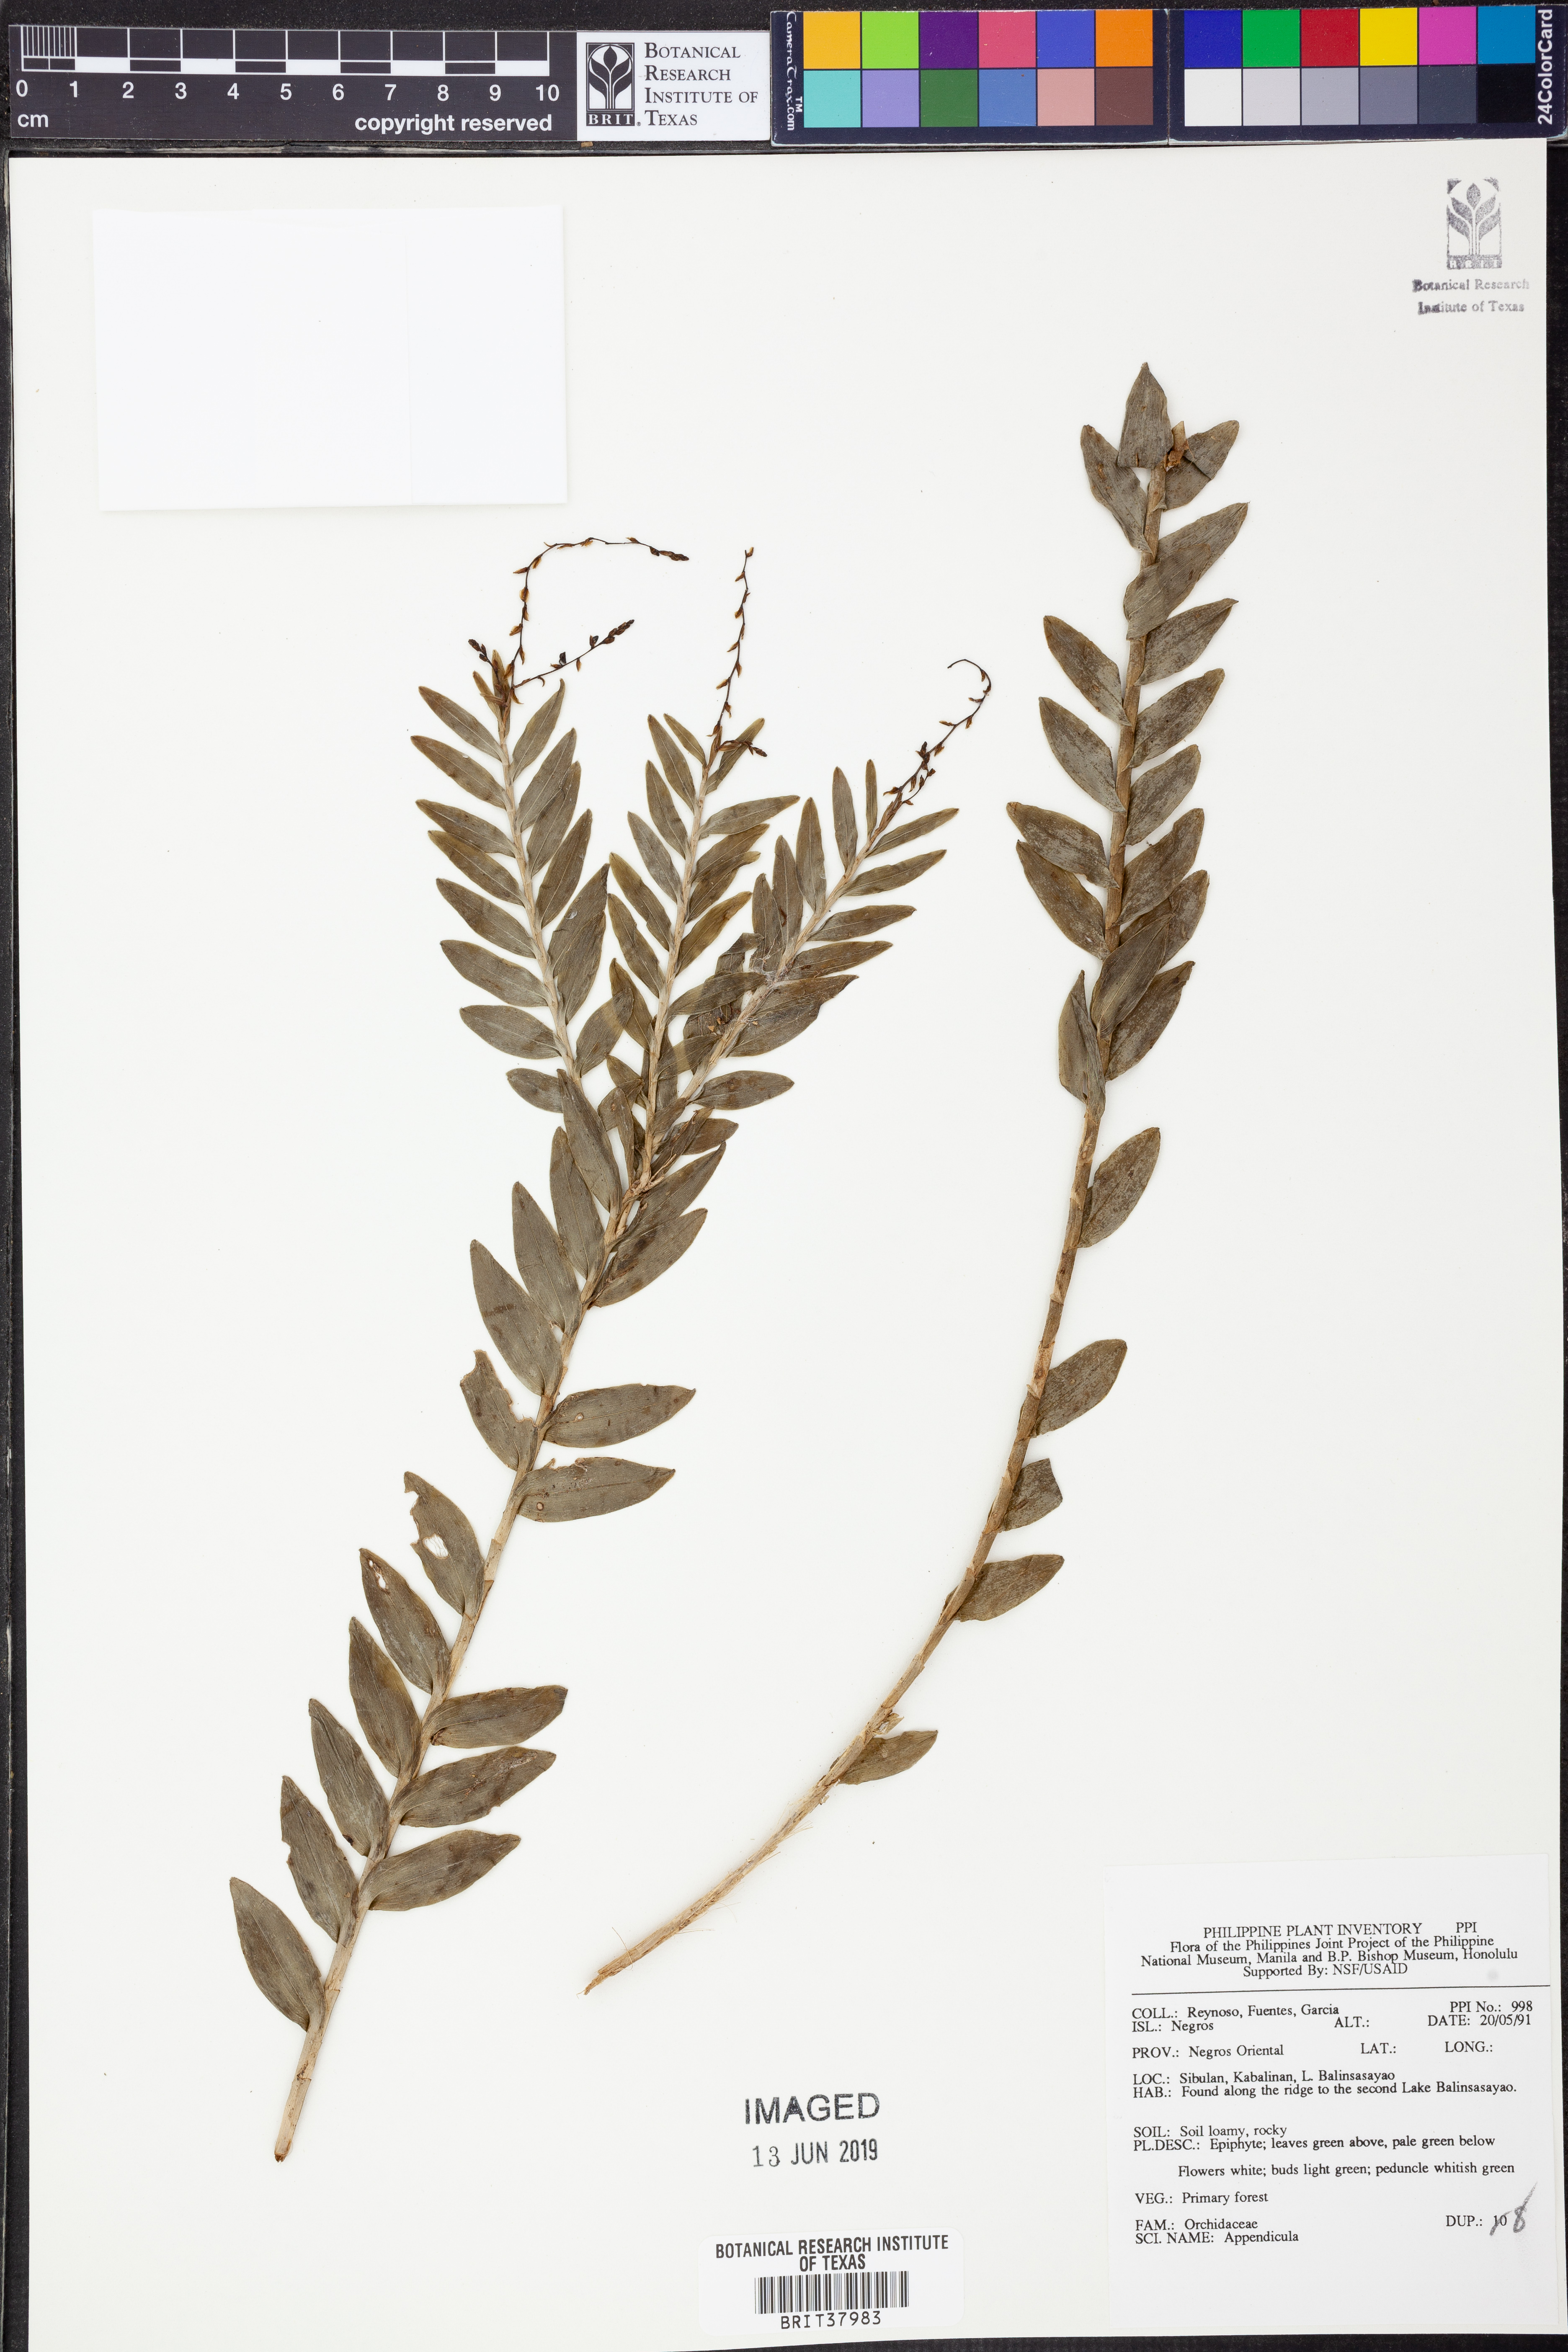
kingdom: Plantae
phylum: Tracheophyta
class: Liliopsida
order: Asparagales
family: Orchidaceae
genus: Appendicula
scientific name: Appendicula
